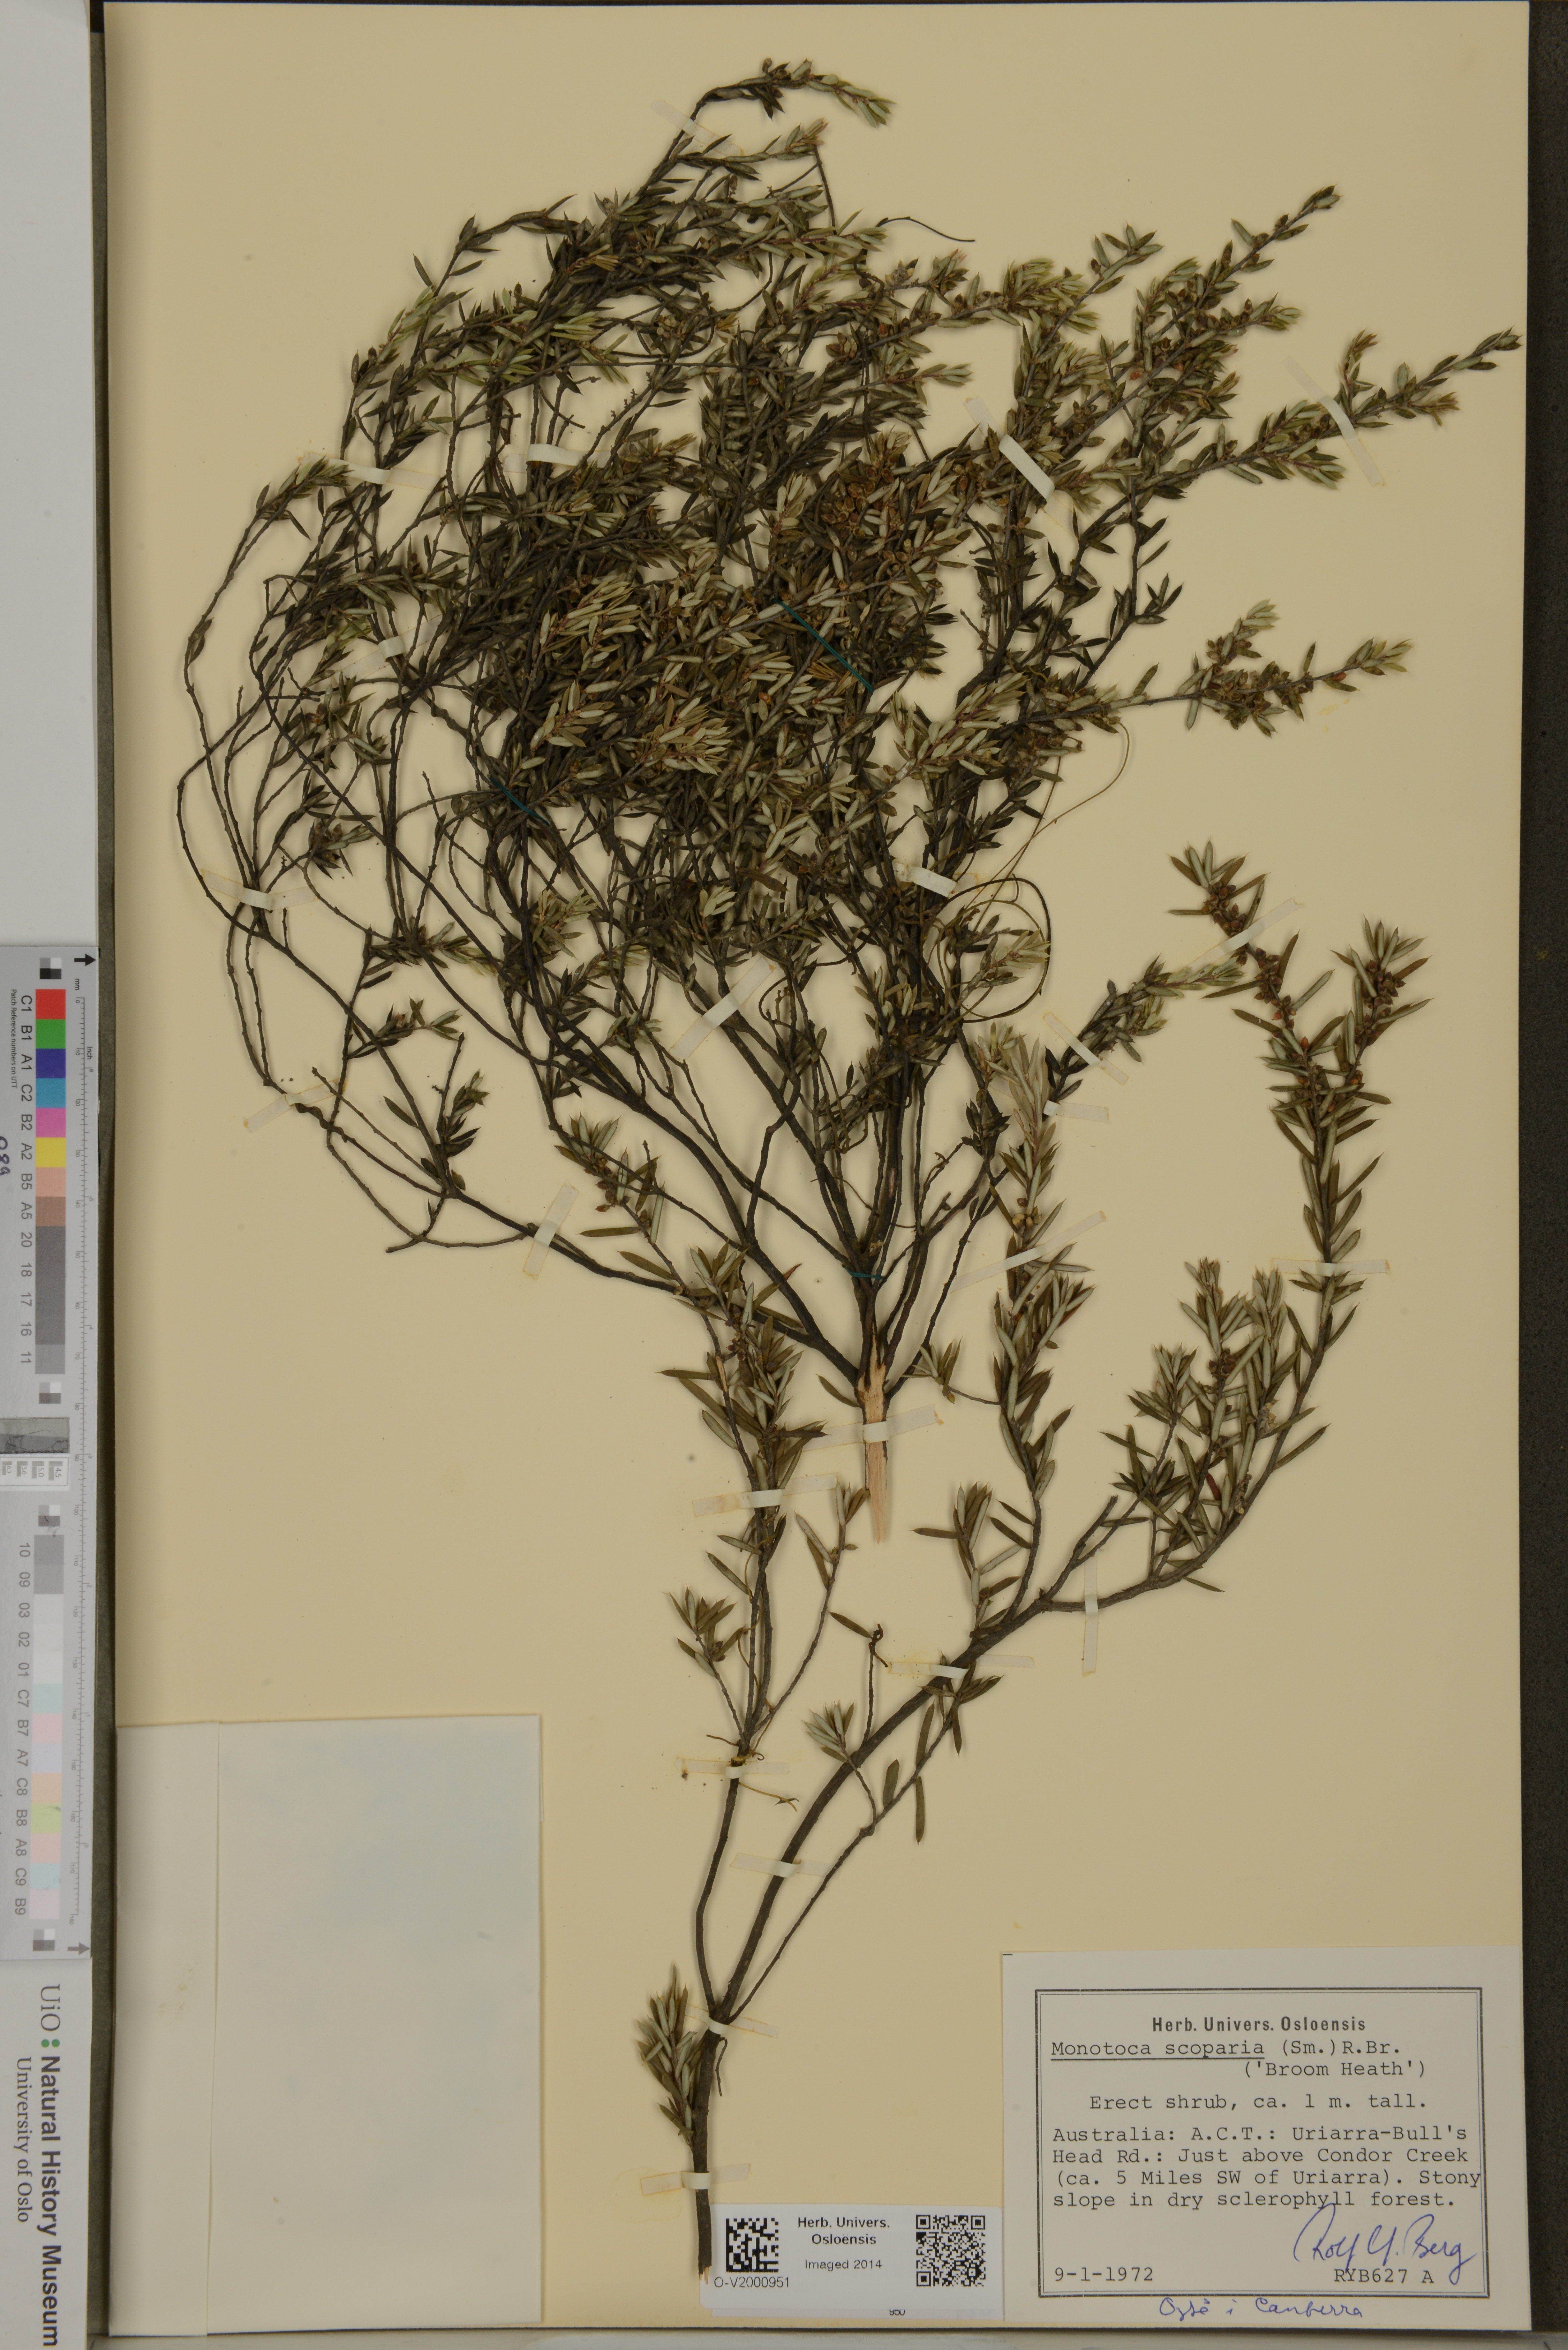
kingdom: Plantae
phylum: Tracheophyta
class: Magnoliopsida
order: Ericales
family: Ericaceae
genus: Monotoca
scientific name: Monotoca scoparia
